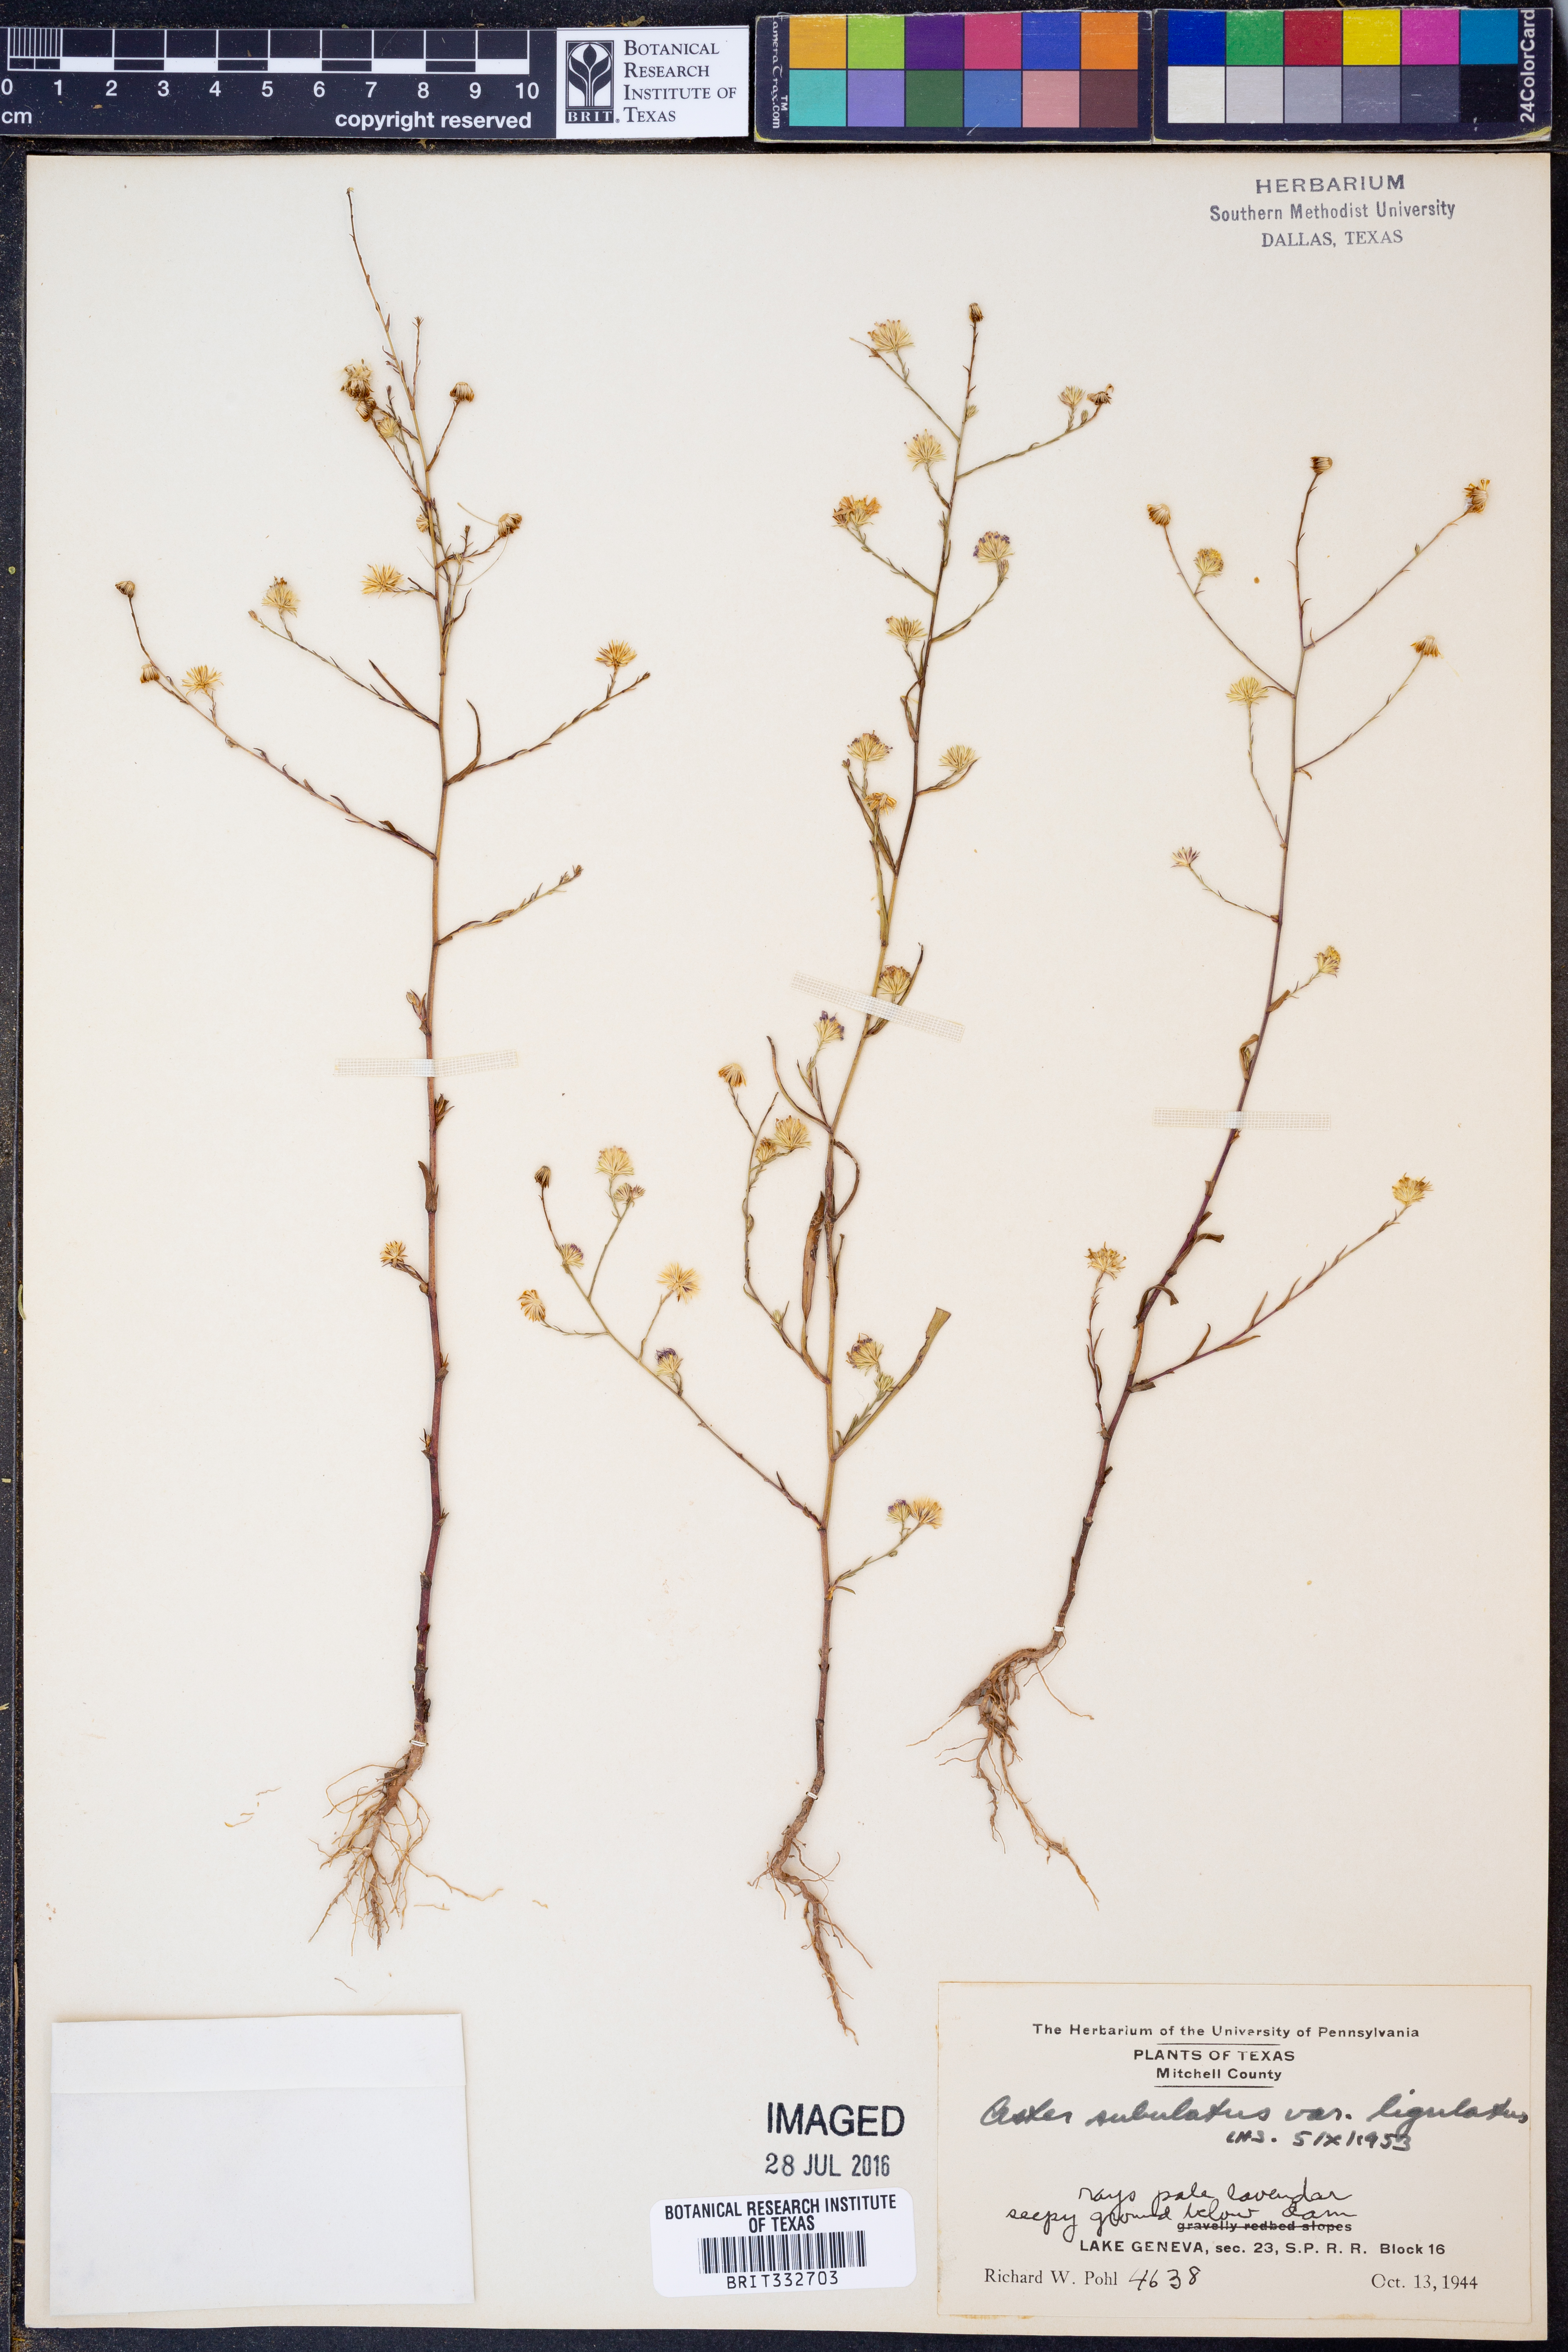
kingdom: Plantae
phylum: Tracheophyta
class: Magnoliopsida
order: Asterales
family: Asteraceae
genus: Symphyotrichum
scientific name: Symphyotrichum subulatum
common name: Annual saltmarsh aster
